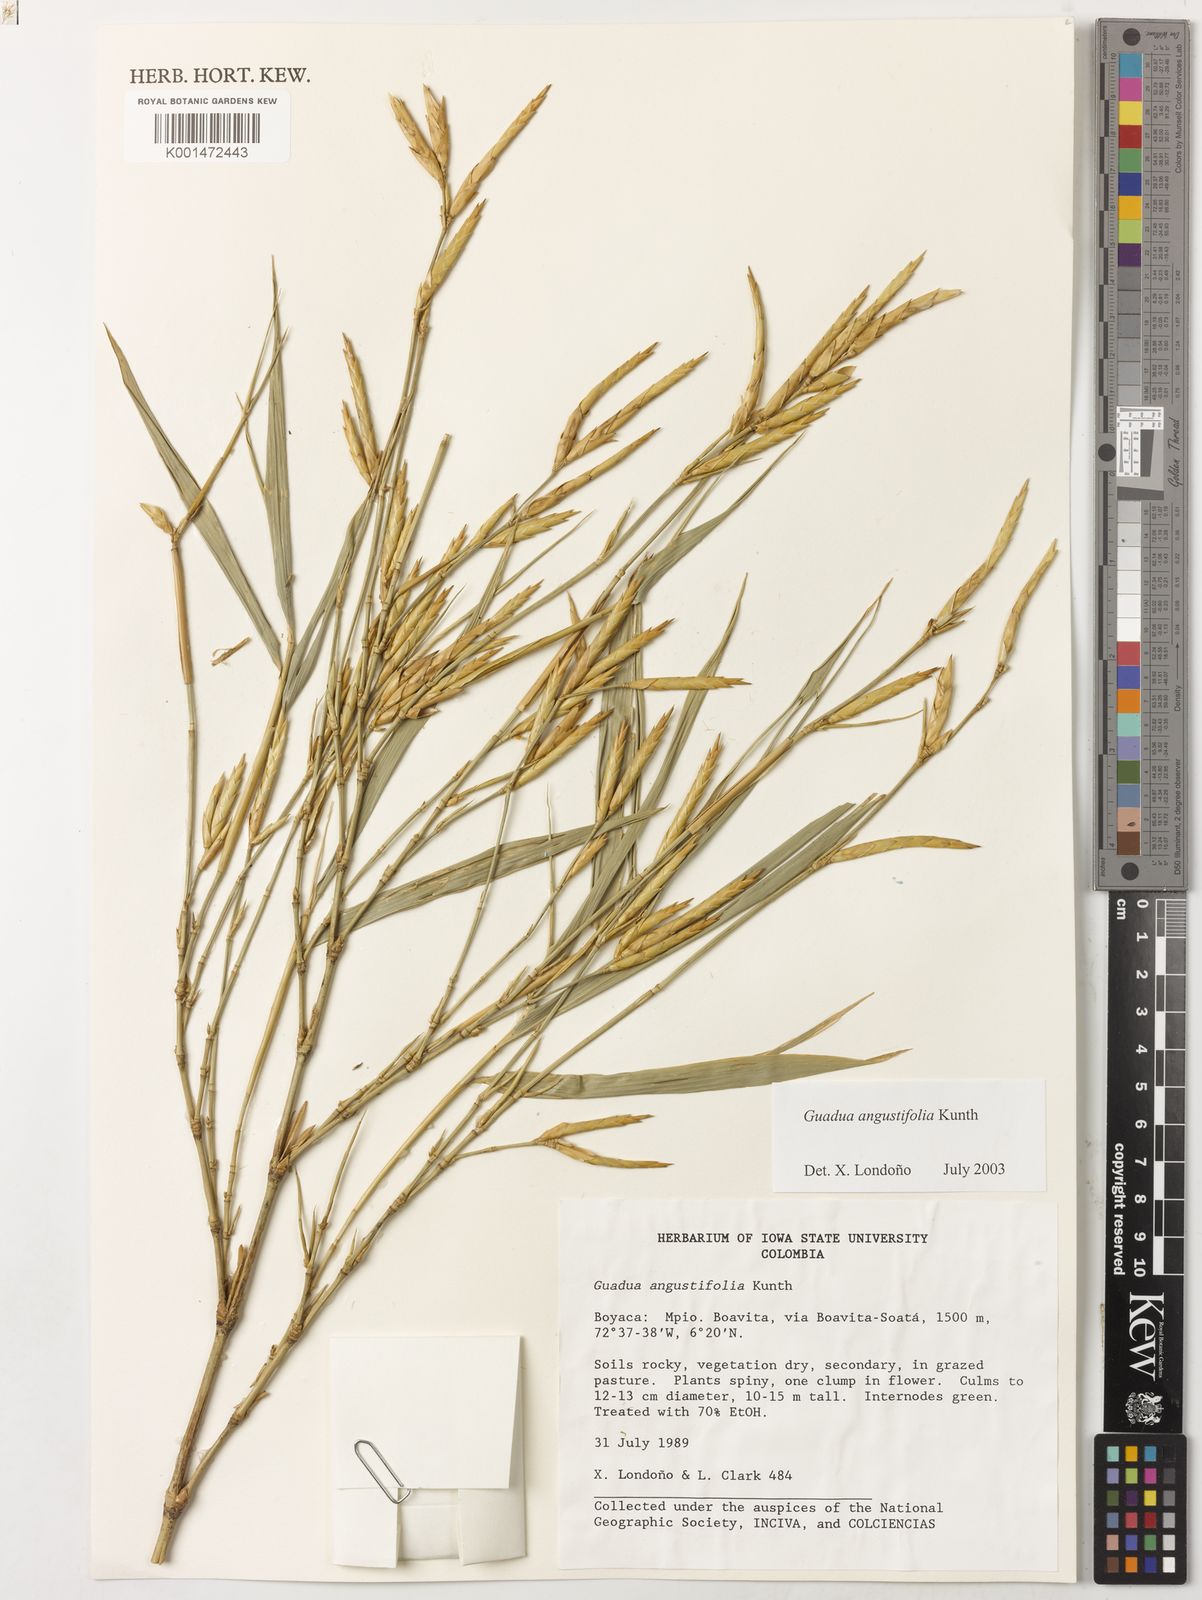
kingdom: Plantae
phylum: Tracheophyta
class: Liliopsida
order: Poales
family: Poaceae
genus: Guadua
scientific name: Guadua angustifolia
